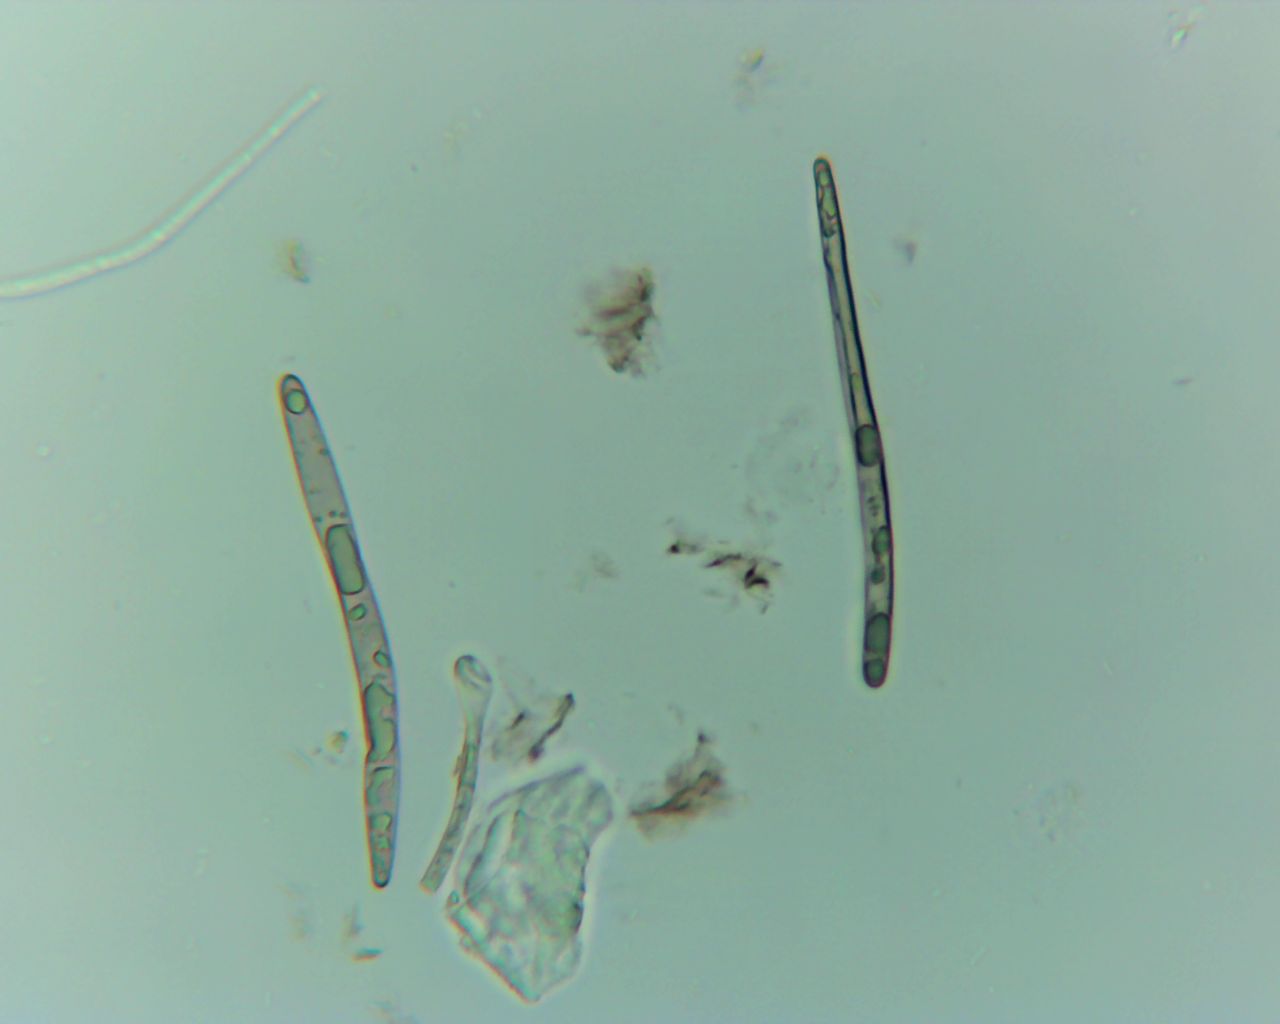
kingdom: Fungi
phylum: Ascomycota
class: Geoglossomycetes
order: Geoglossales
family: Geoglossaceae
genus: Geoglossum
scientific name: Geoglossum fallax
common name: småskællet jordtunge
